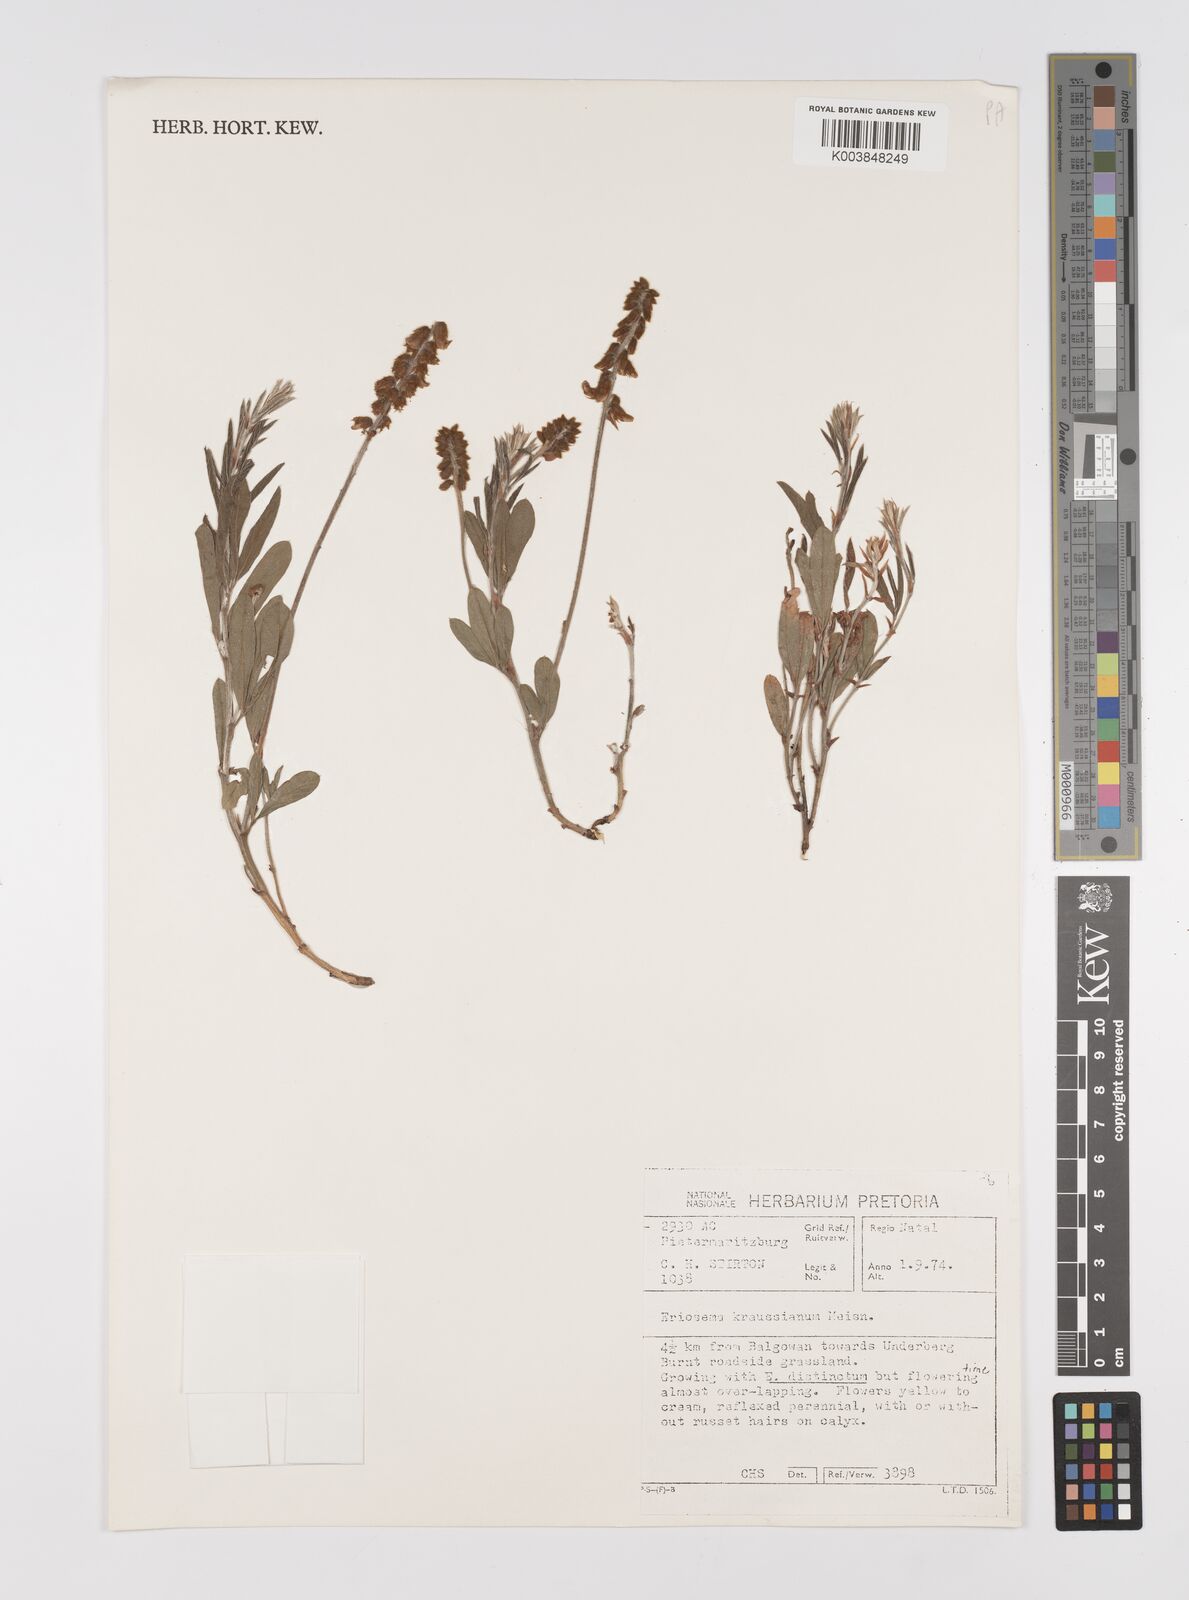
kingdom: Plantae
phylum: Tracheophyta
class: Magnoliopsida
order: Fabales
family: Fabaceae
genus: Eriosema
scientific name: Eriosema kraussianum
